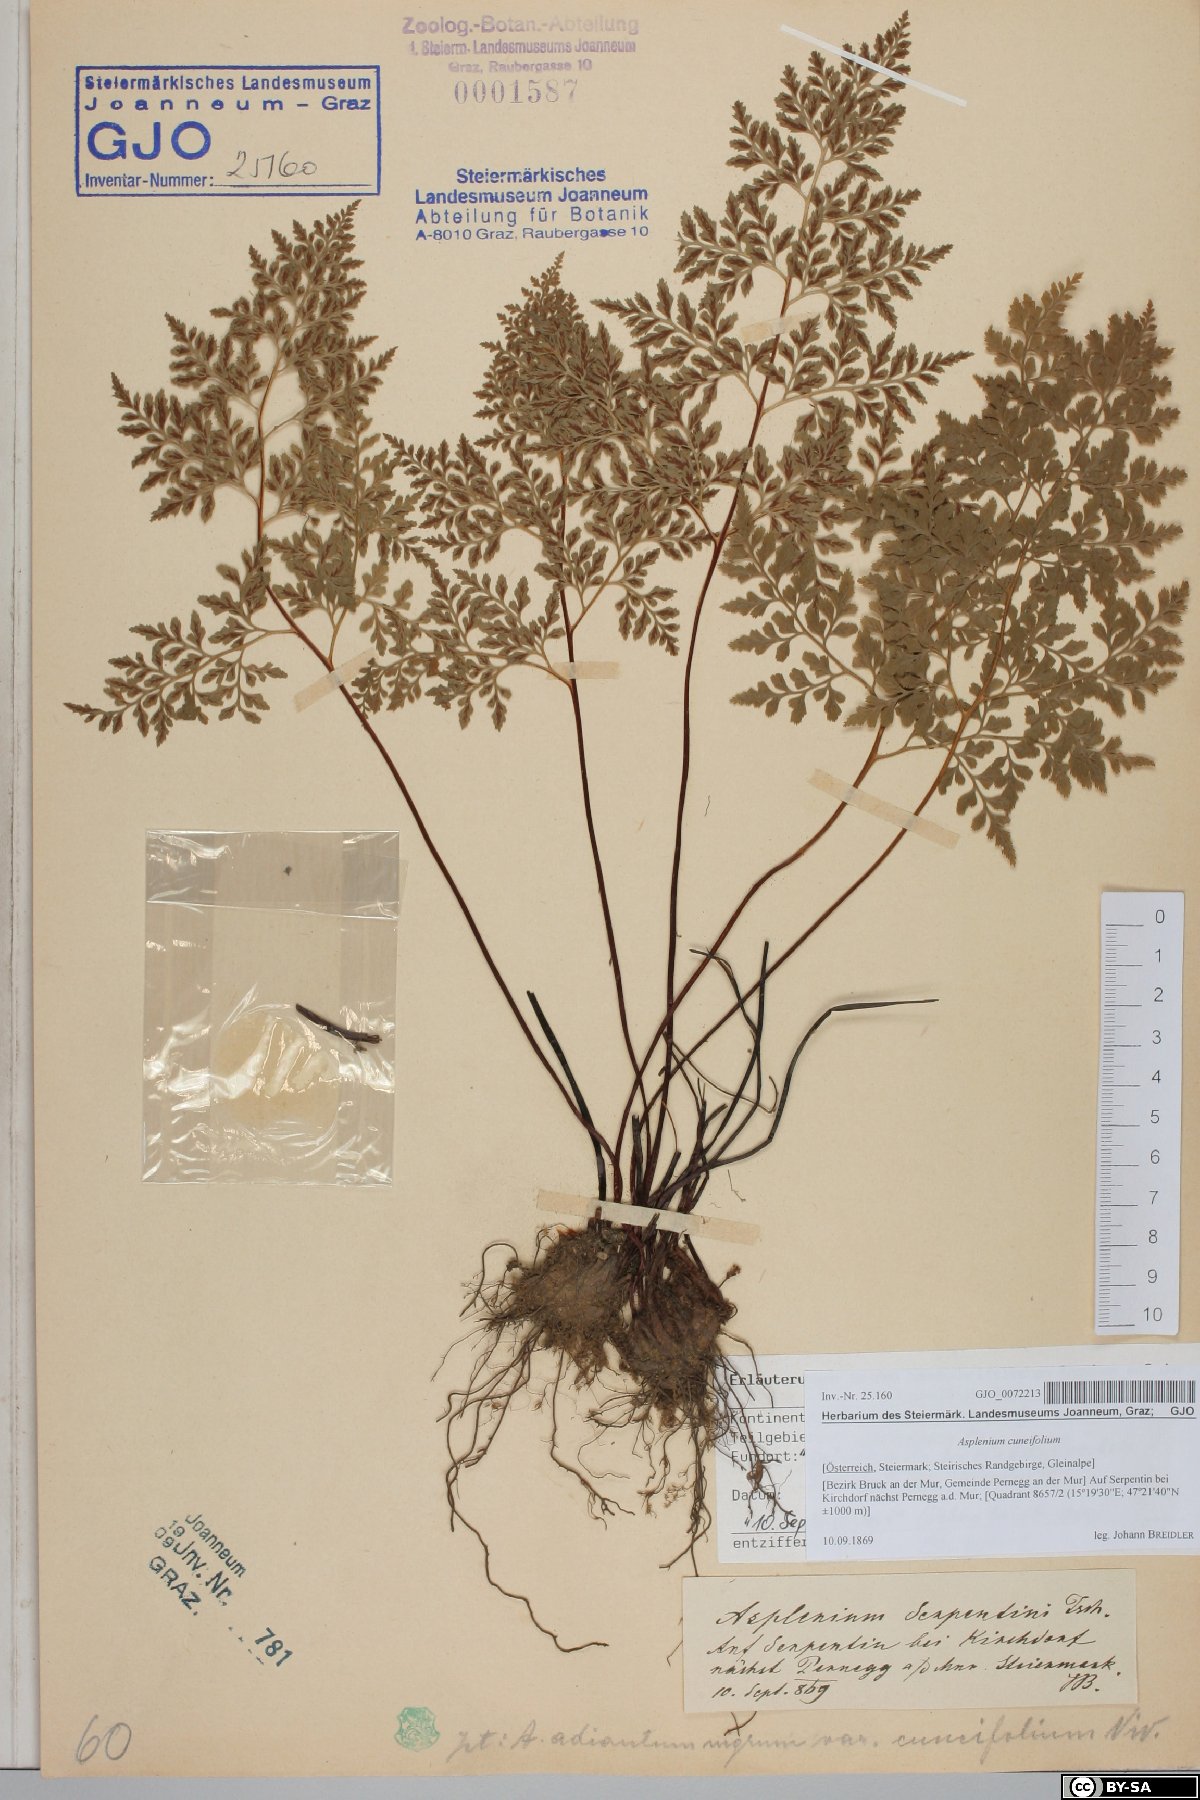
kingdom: Plantae
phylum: Tracheophyta
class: Polypodiopsida
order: Polypodiales
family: Aspleniaceae
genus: Asplenium
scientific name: Asplenium cuneifolium
